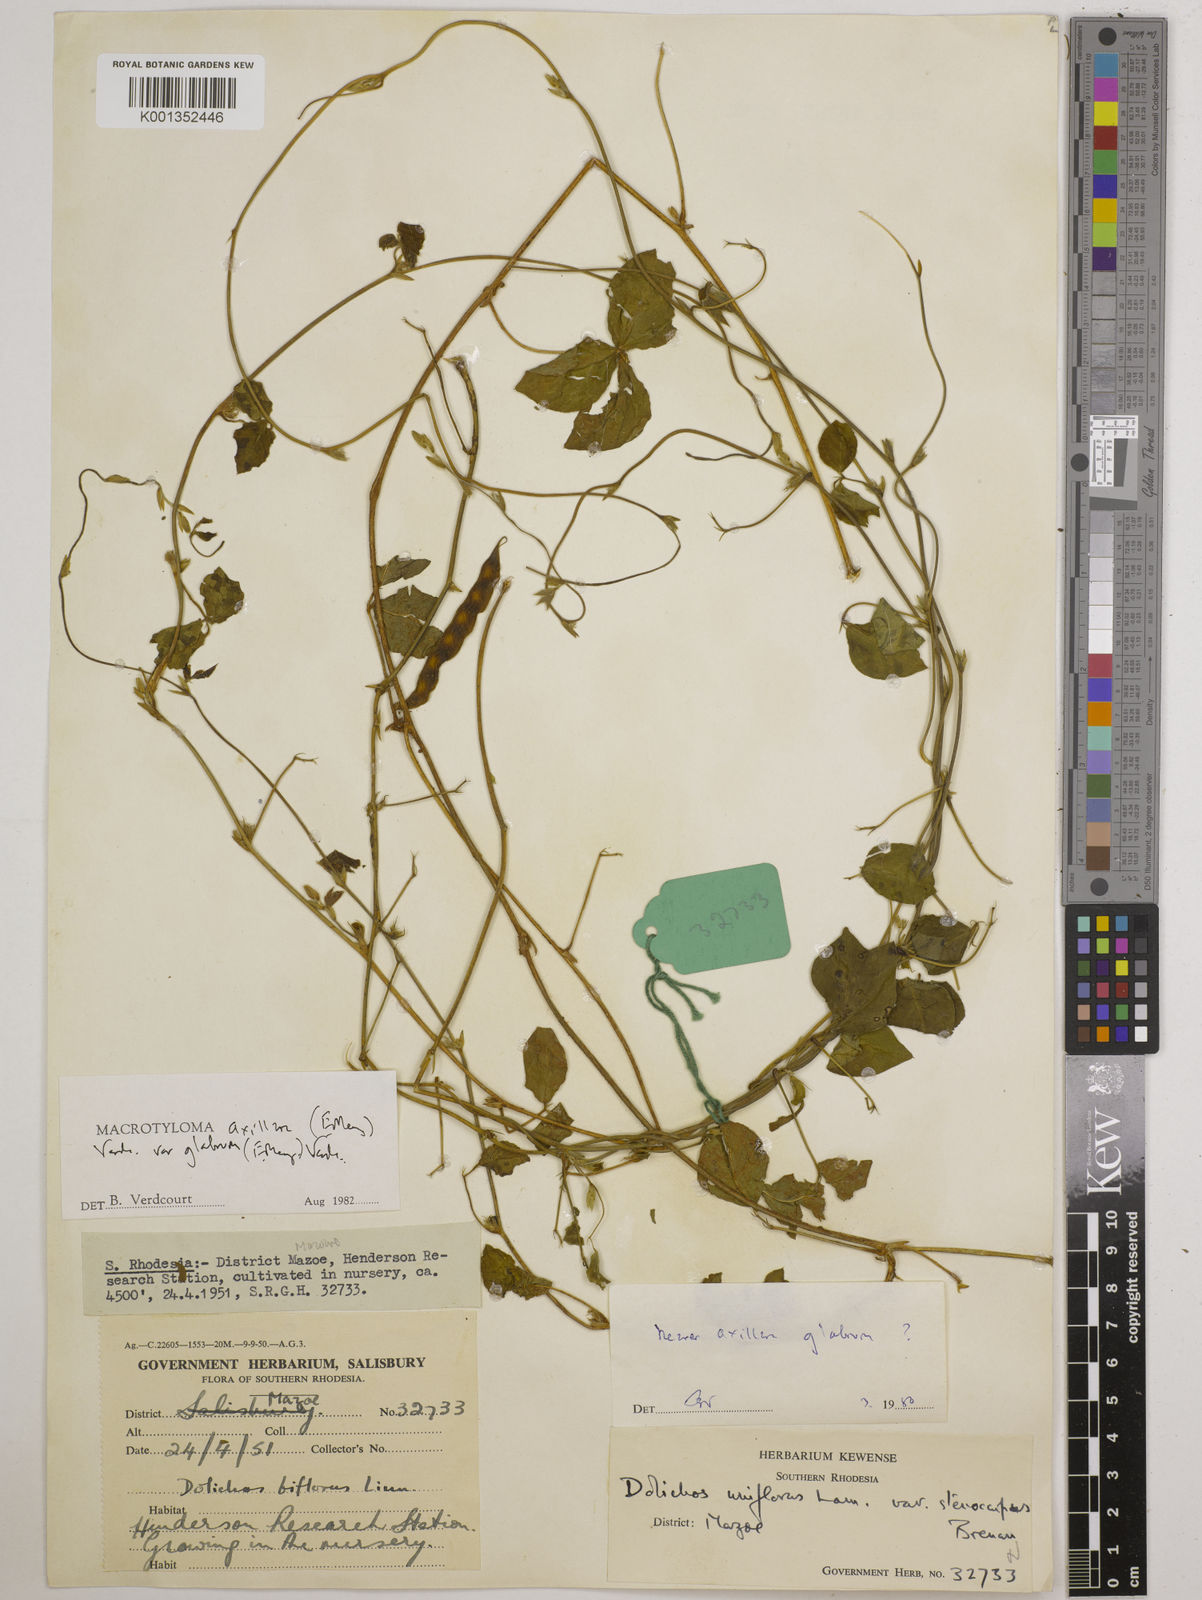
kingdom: Plantae
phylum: Tracheophyta
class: Magnoliopsida
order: Fabales
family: Fabaceae
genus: Macrotyloma
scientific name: Macrotyloma axillare
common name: Perennial horsegram
